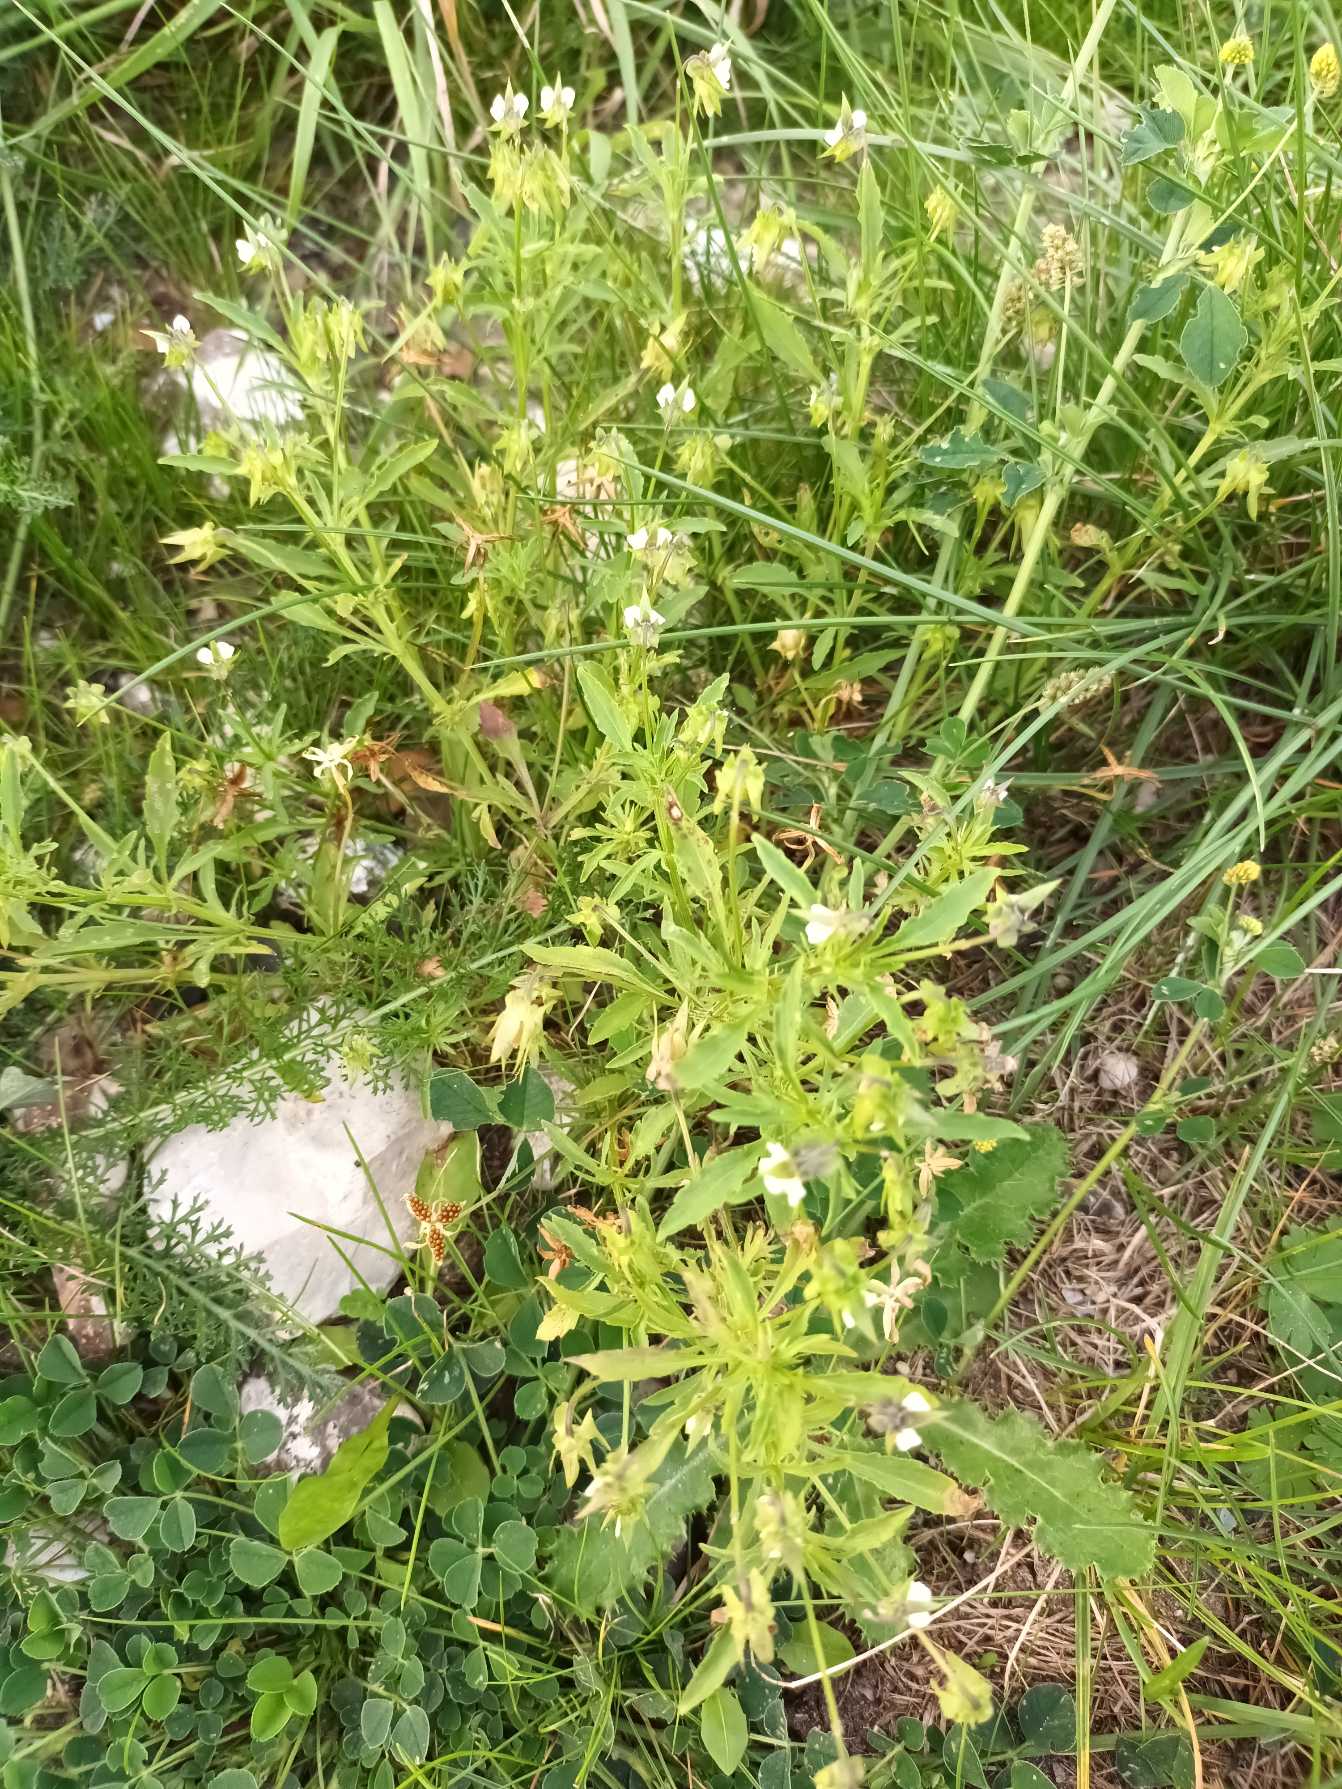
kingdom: Plantae
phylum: Tracheophyta
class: Magnoliopsida
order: Malpighiales
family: Violaceae
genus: Viola
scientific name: Viola arvensis
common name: Ager-stedmoderblomst
